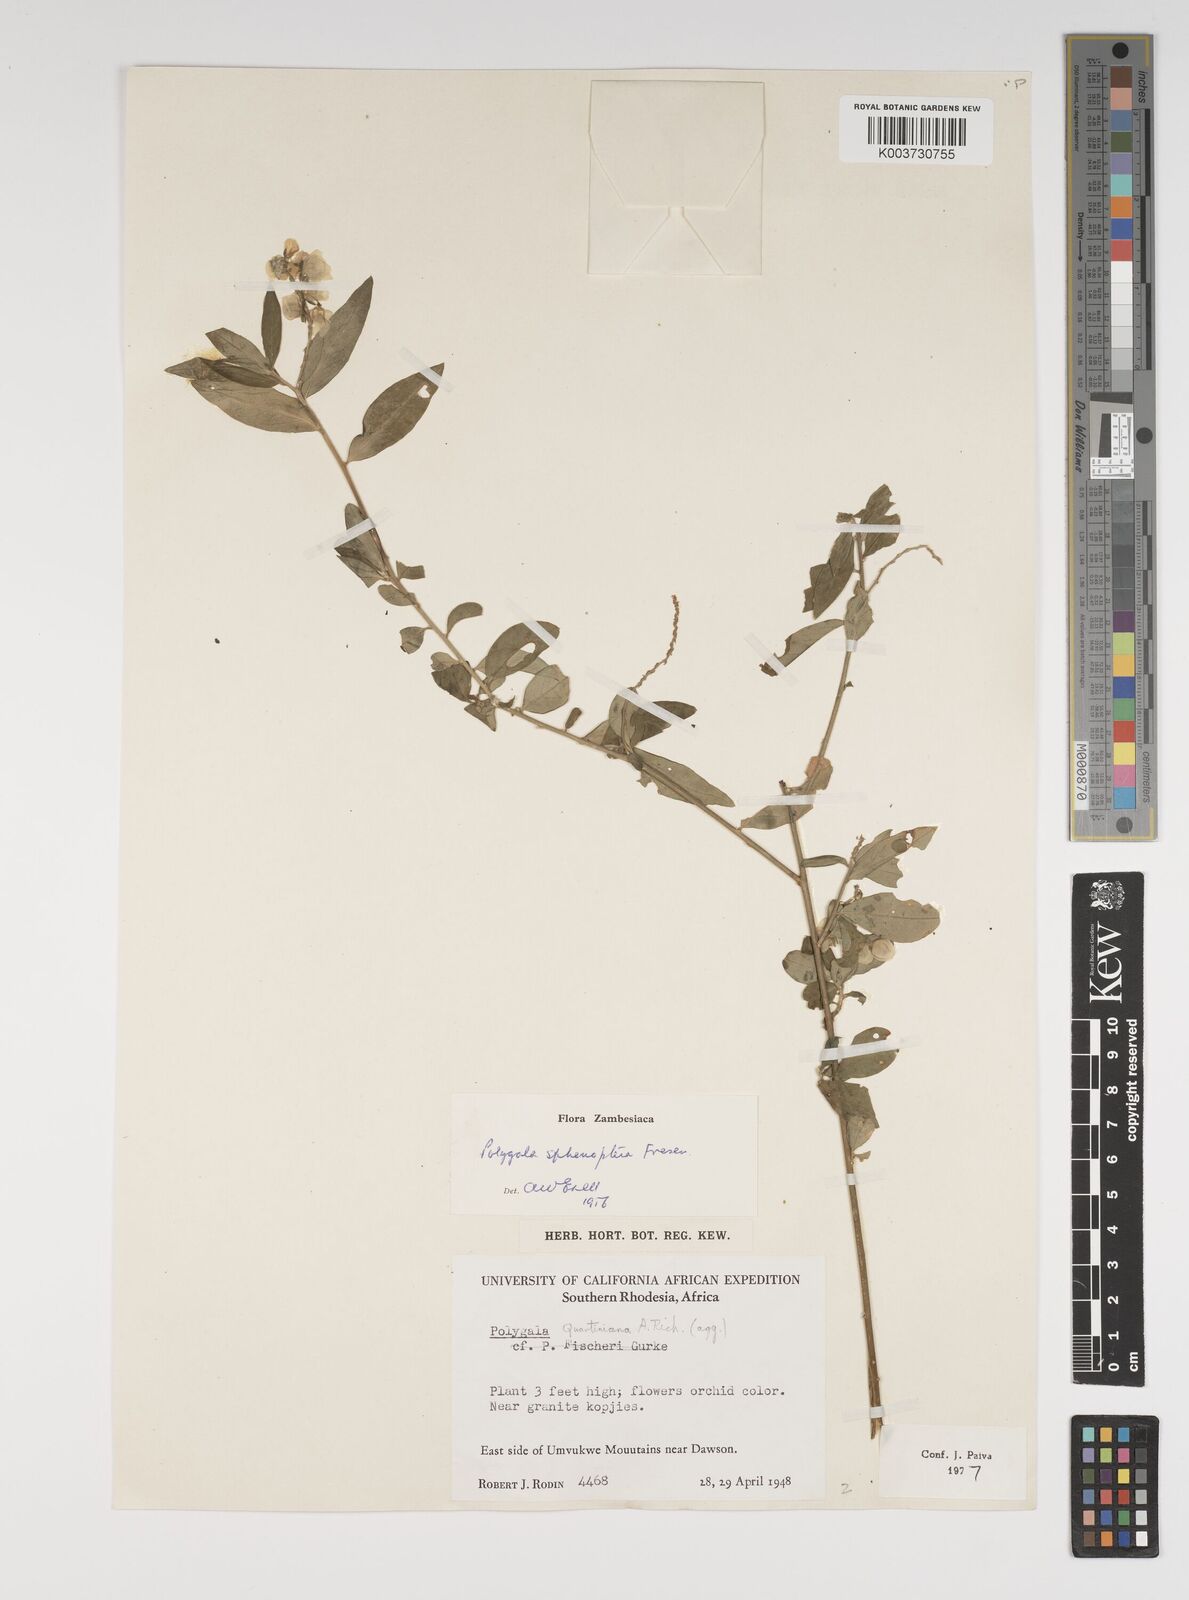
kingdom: Plantae
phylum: Tracheophyta
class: Magnoliopsida
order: Fabales
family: Polygalaceae
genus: Polygala
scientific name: Polygala sphenoptera
